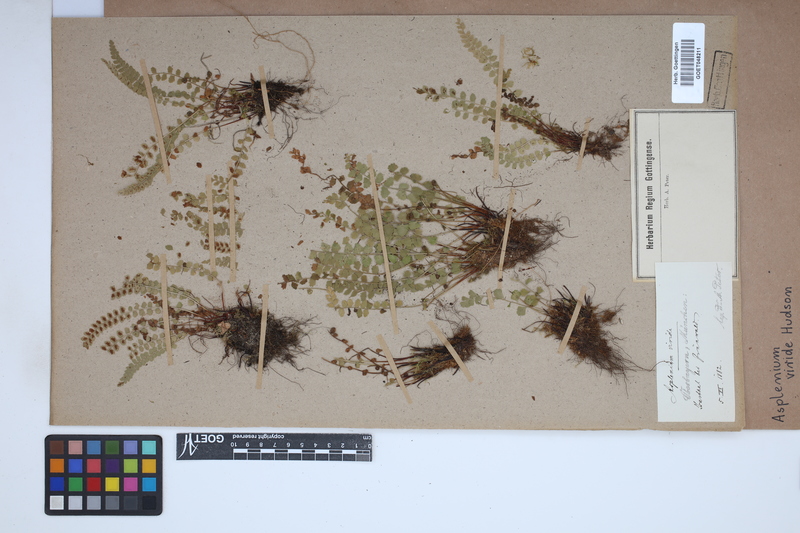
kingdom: Plantae
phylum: Tracheophyta
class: Polypodiopsida
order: Polypodiales
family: Aspleniaceae
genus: Asplenium
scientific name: Asplenium viride
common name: Green spleenwort
